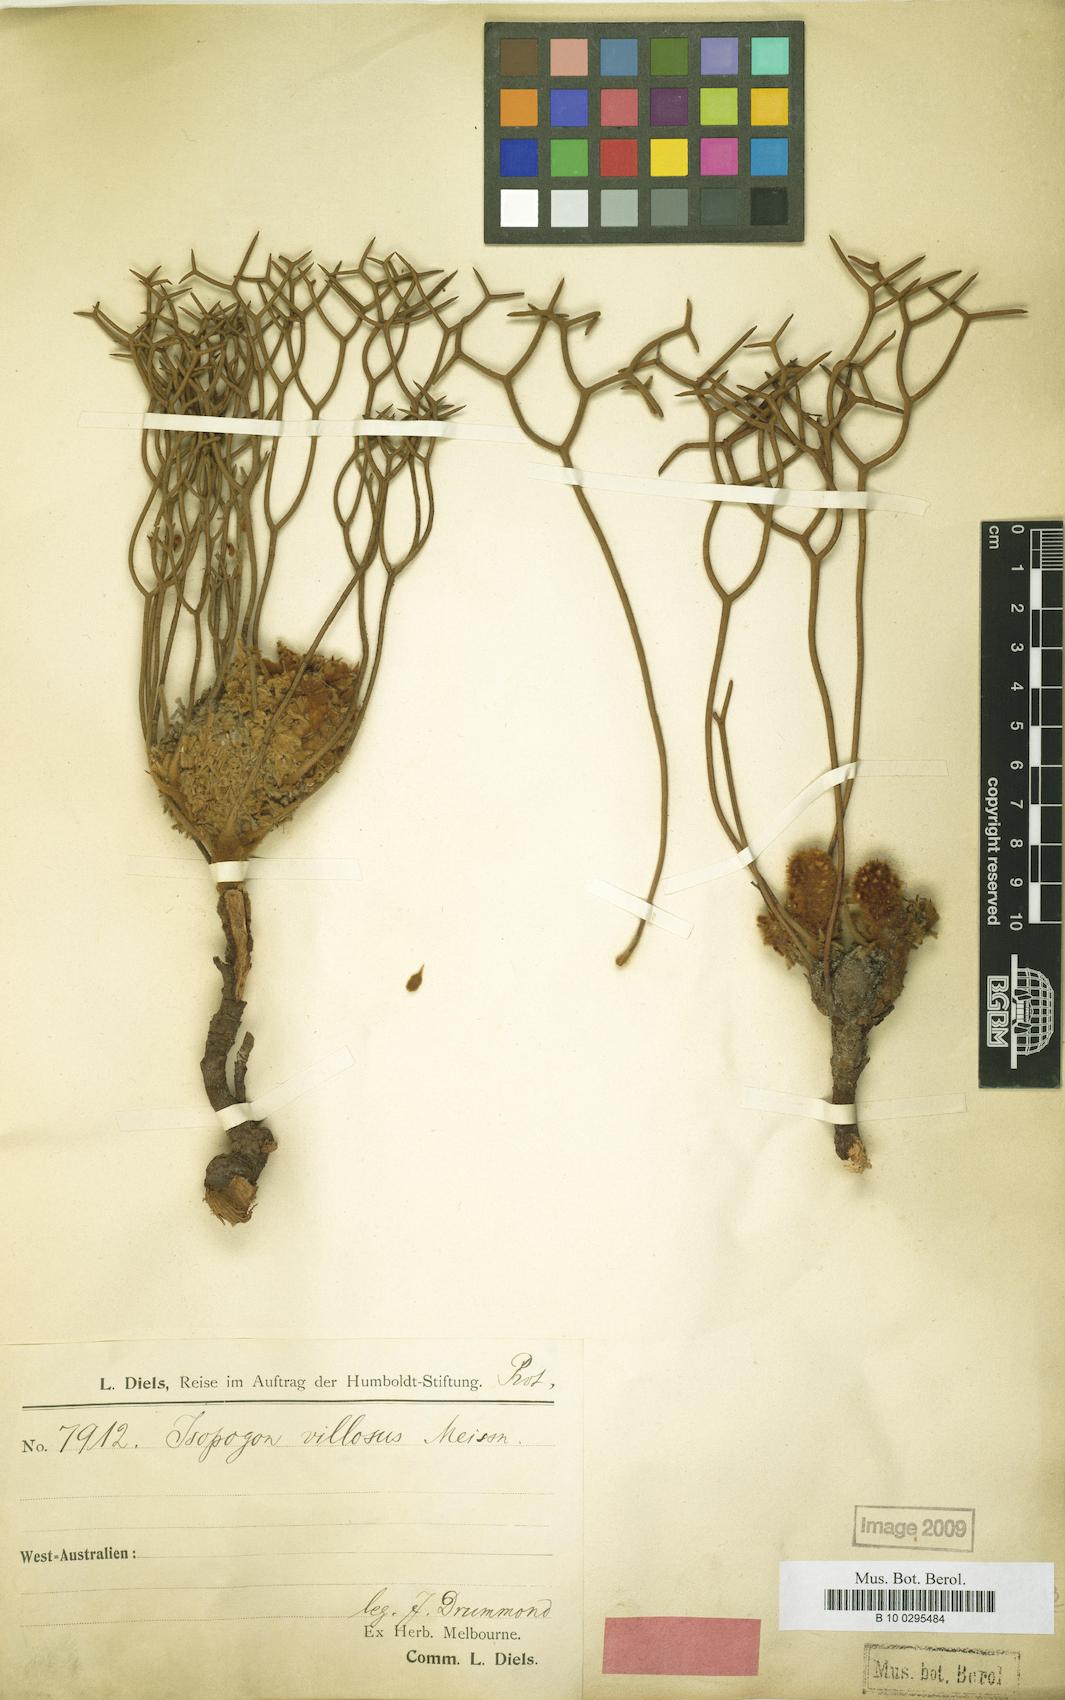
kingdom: Plantae
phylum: Tracheophyta
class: Magnoliopsida
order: Proteales
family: Proteaceae
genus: Isopogon
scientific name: Isopogon villosus
